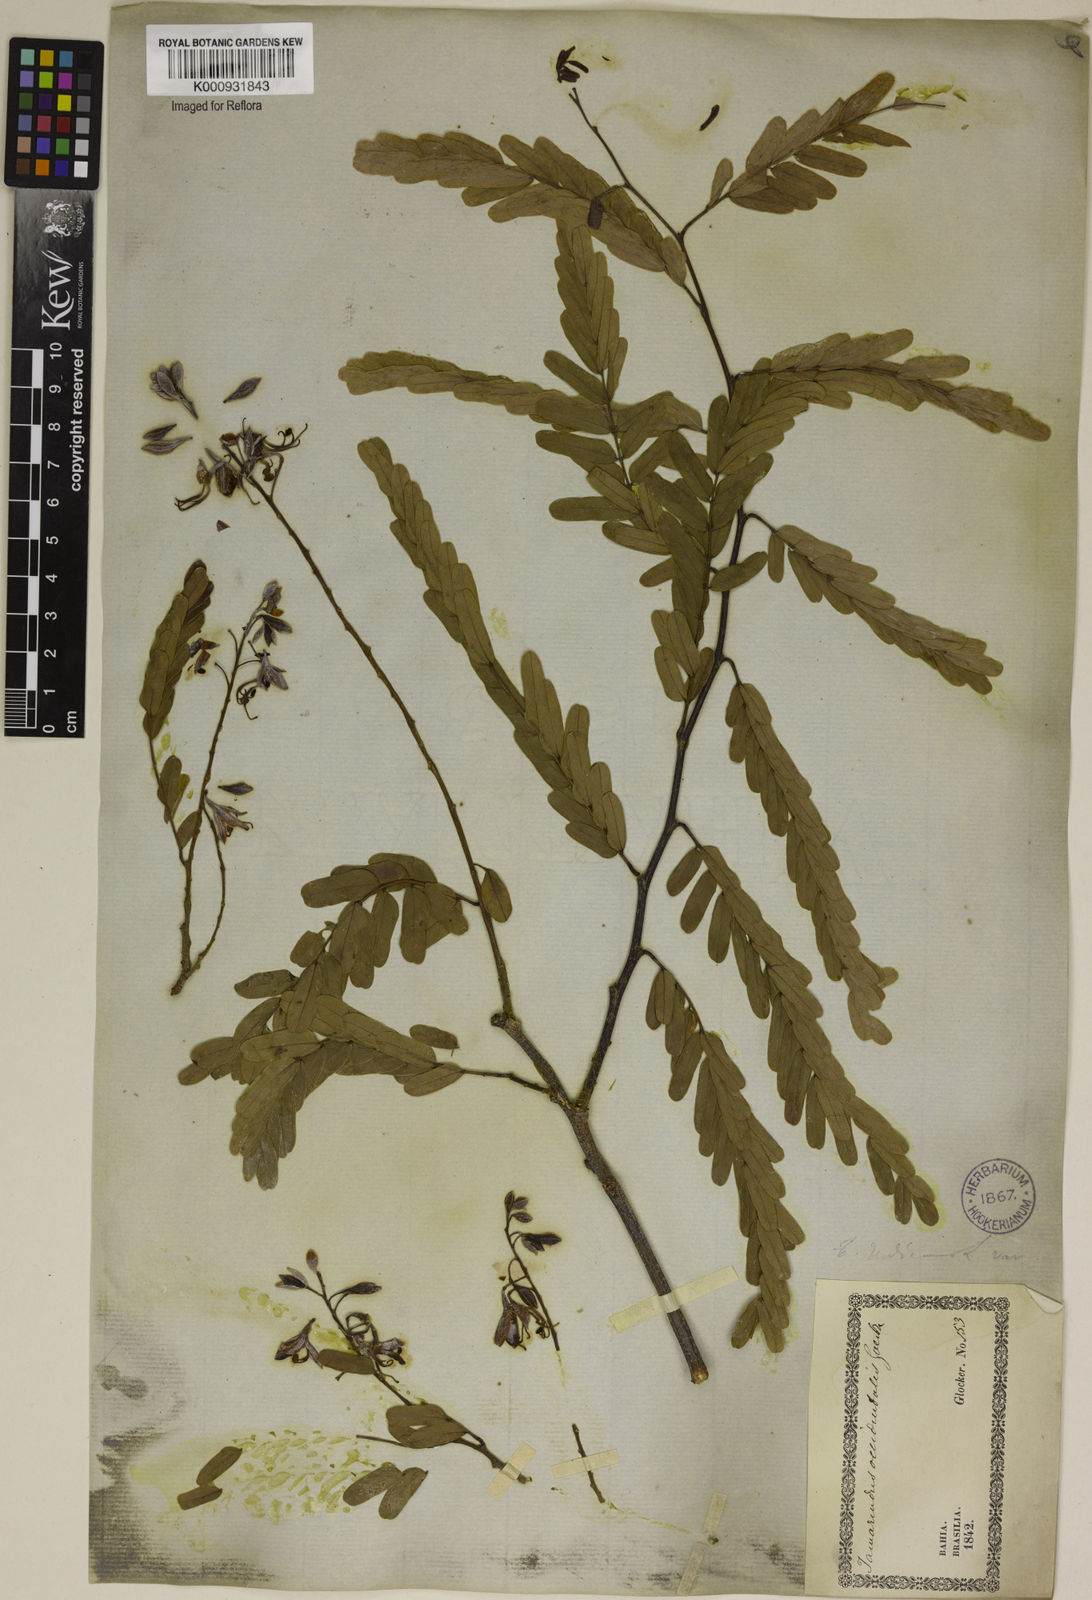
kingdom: Plantae
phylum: Tracheophyta
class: Magnoliopsida
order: Fabales
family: Fabaceae
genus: Tamarindus
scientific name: Tamarindus indica
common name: Tamarind
